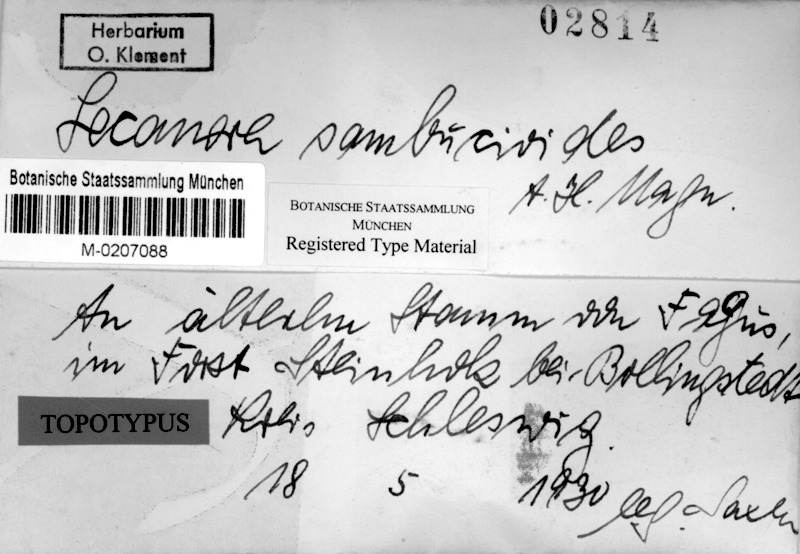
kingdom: Fungi
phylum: Ascomycota
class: Lecanoromycetes
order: Lecanorales
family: Lecanoraceae
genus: Polyozosia
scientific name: Polyozosia sambuci
